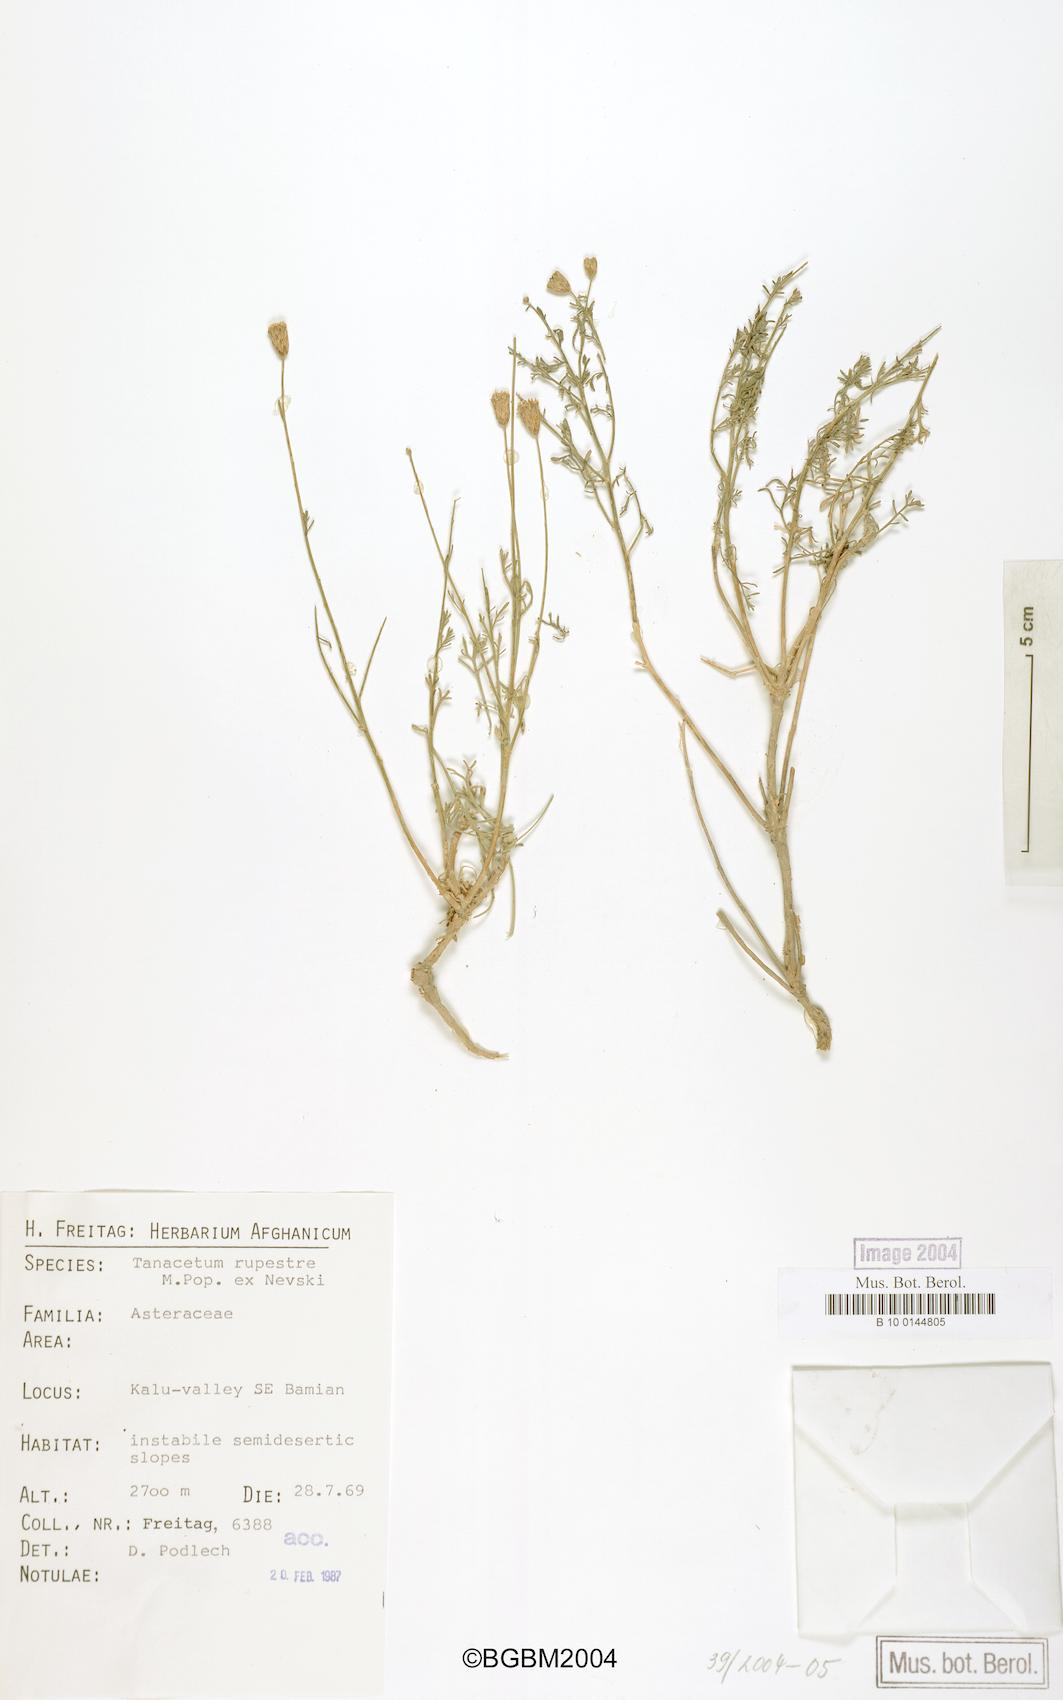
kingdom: Plantae
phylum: Tracheophyta
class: Magnoliopsida
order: Asterales
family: Asteraceae
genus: Xylanthemum
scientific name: Xylanthemum fisherae
